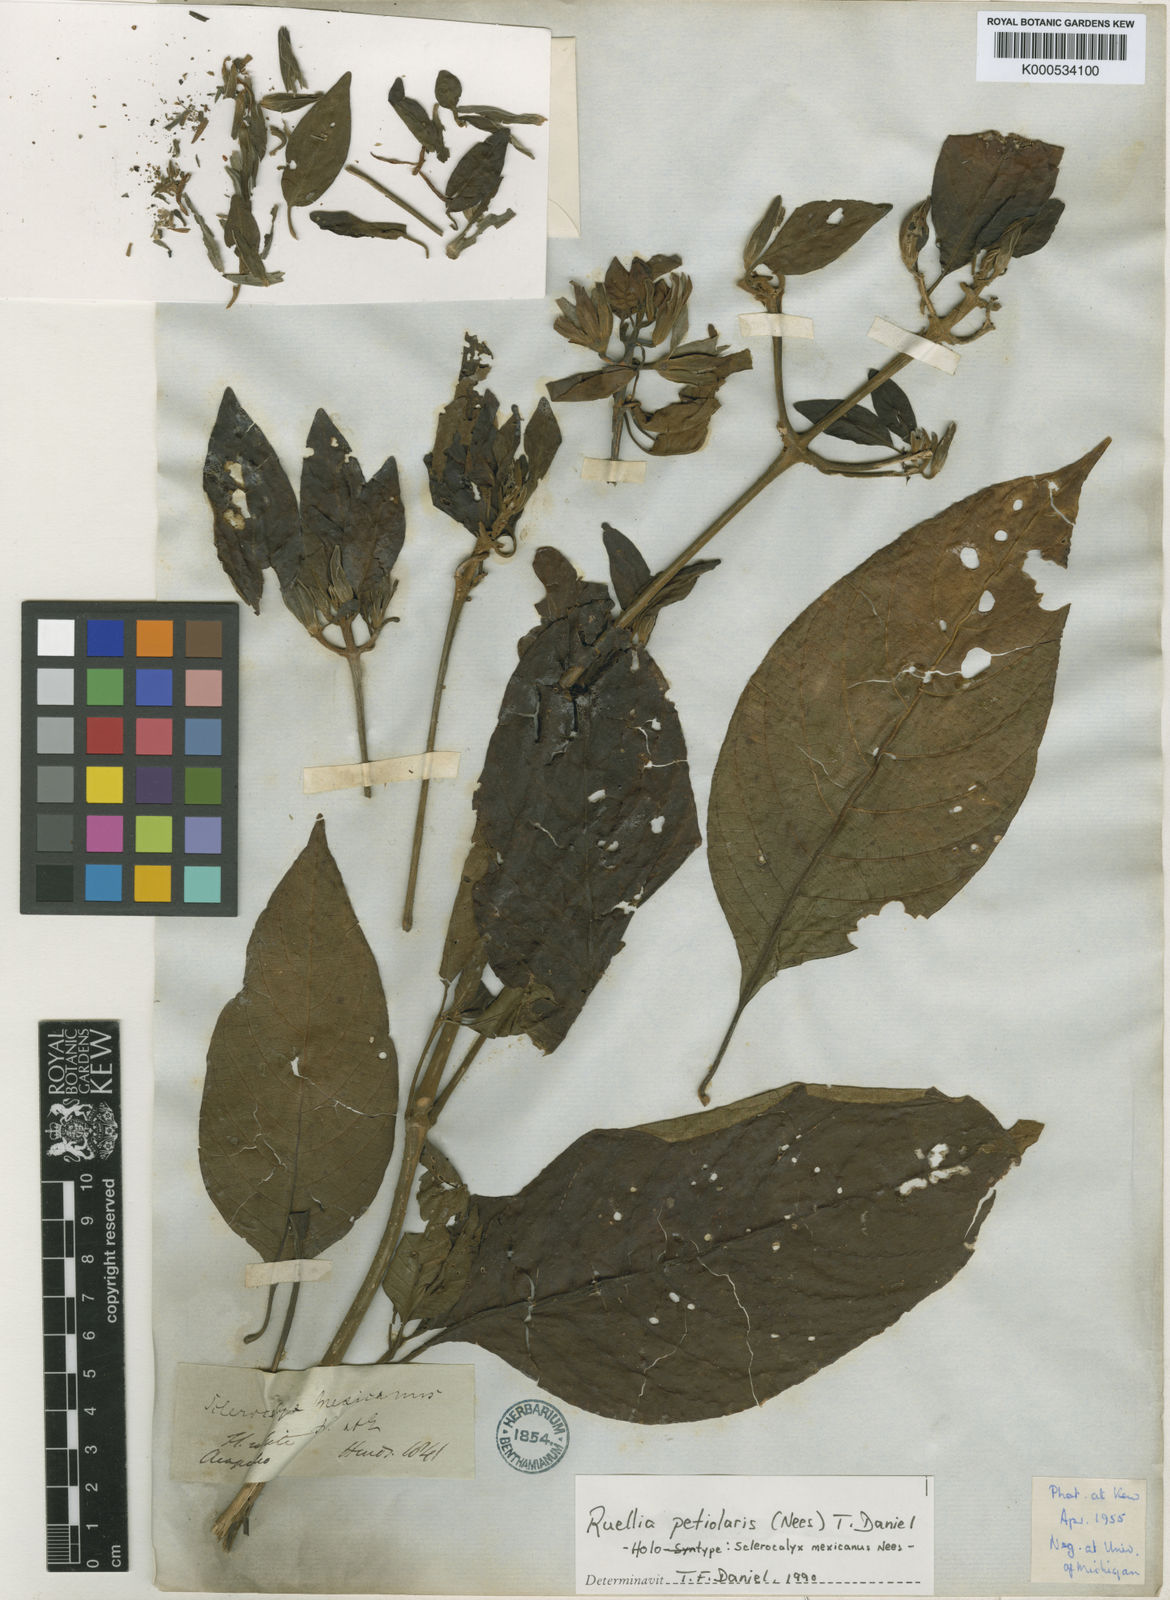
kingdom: Plantae
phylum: Tracheophyta
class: Magnoliopsida
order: Lamiales
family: Acanthaceae
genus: Ruellia
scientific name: Ruellia petiolaris
